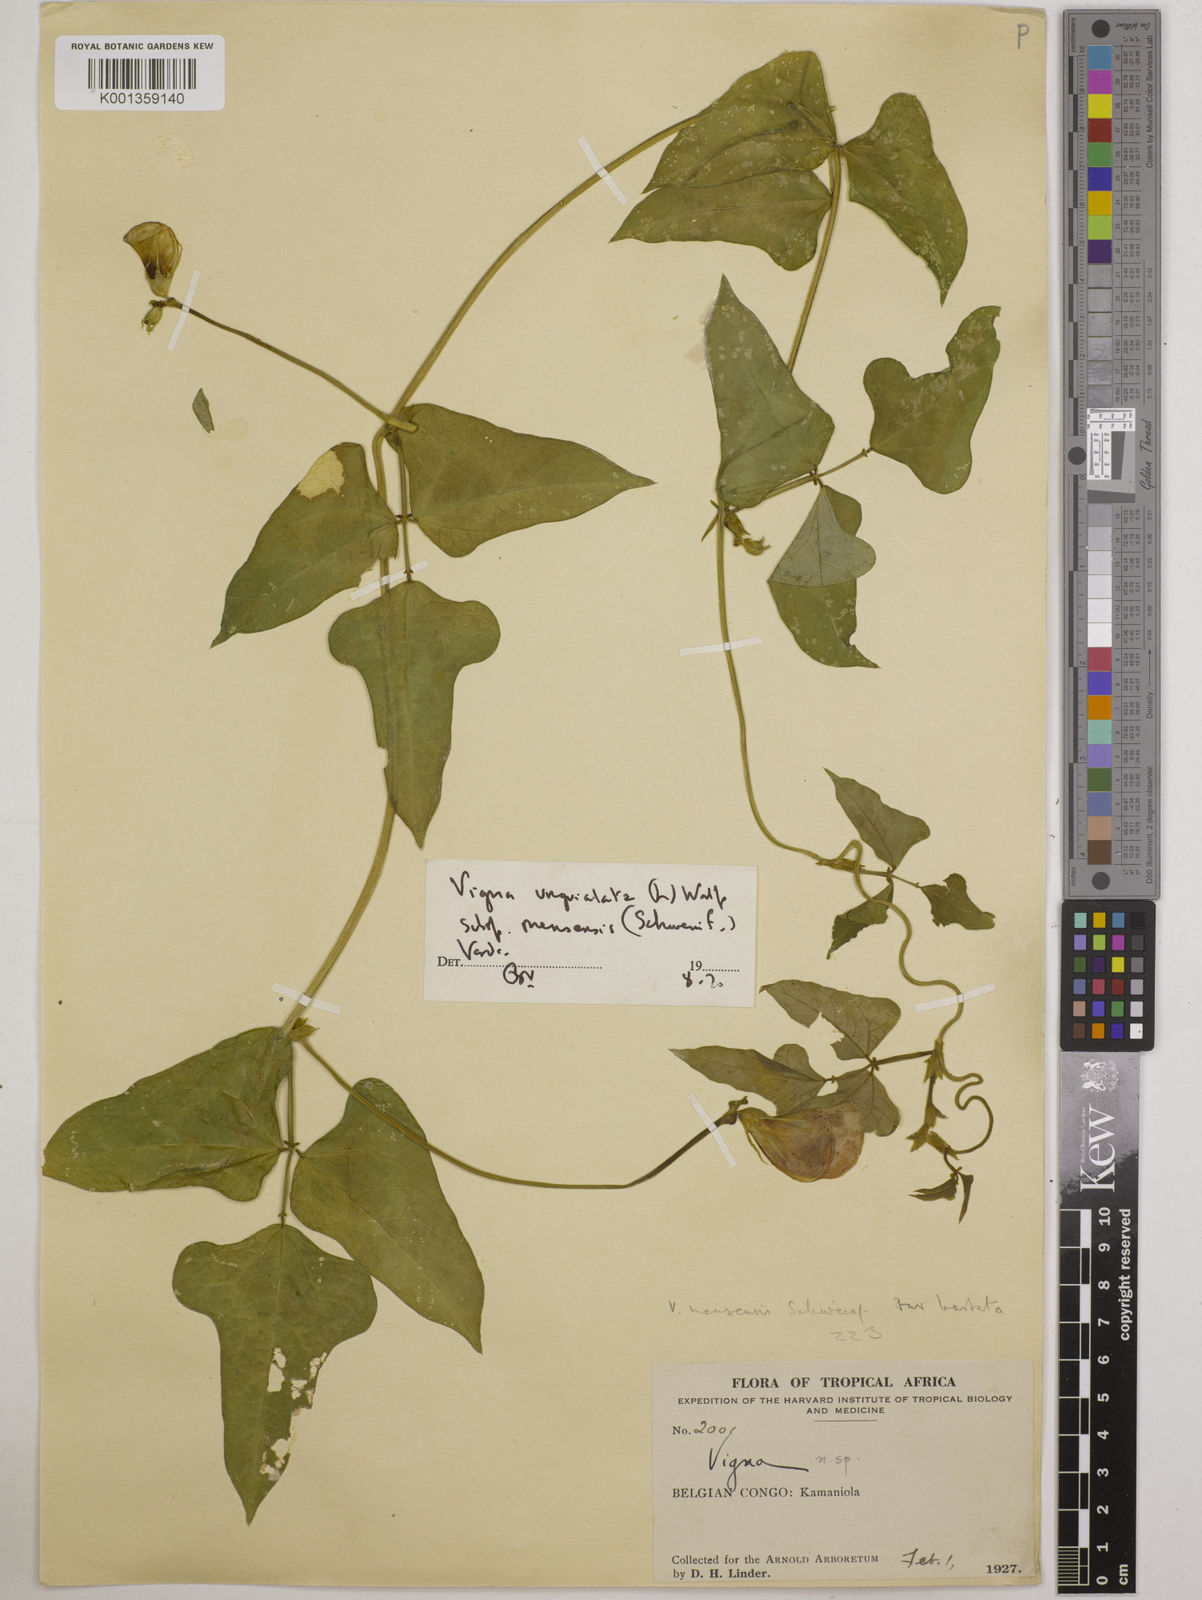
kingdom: Plantae
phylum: Tracheophyta
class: Magnoliopsida
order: Fabales
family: Fabaceae
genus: Vigna
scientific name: Vigna unguiculata
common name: Cowpea
